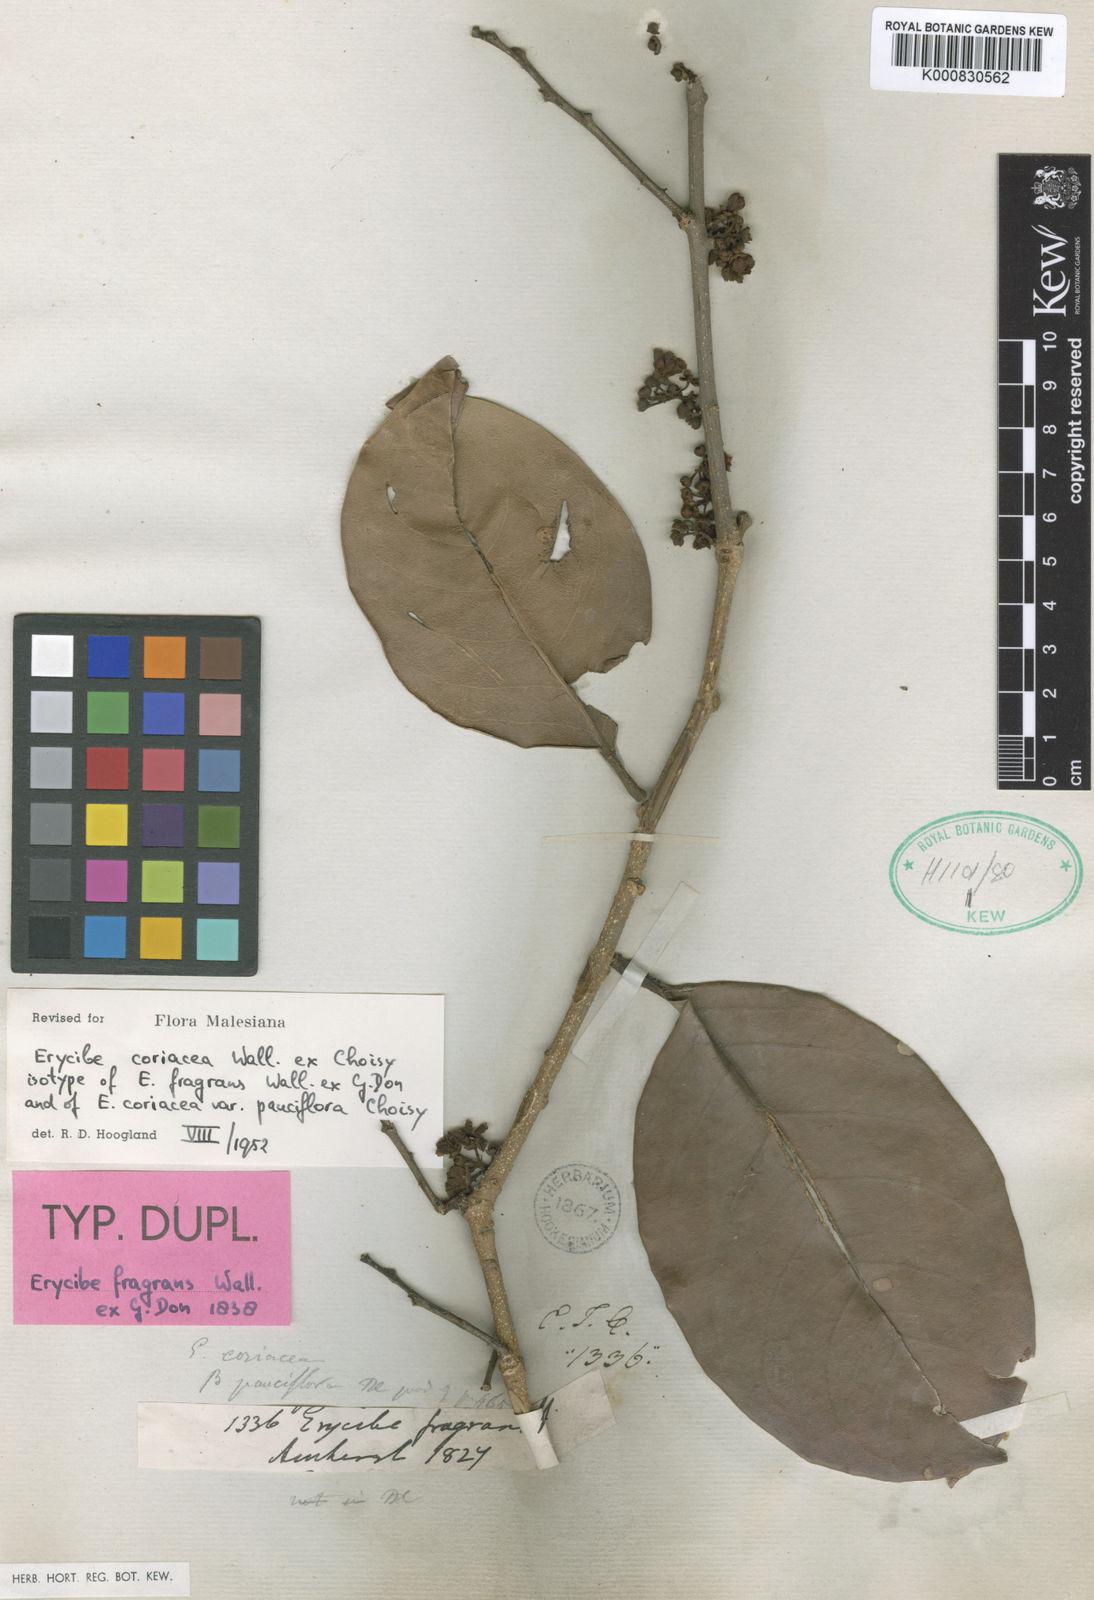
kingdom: Plantae
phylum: Tracheophyta
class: Magnoliopsida
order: Solanales
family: Convolvulaceae
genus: Erycibe
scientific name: Erycibe coriacea
